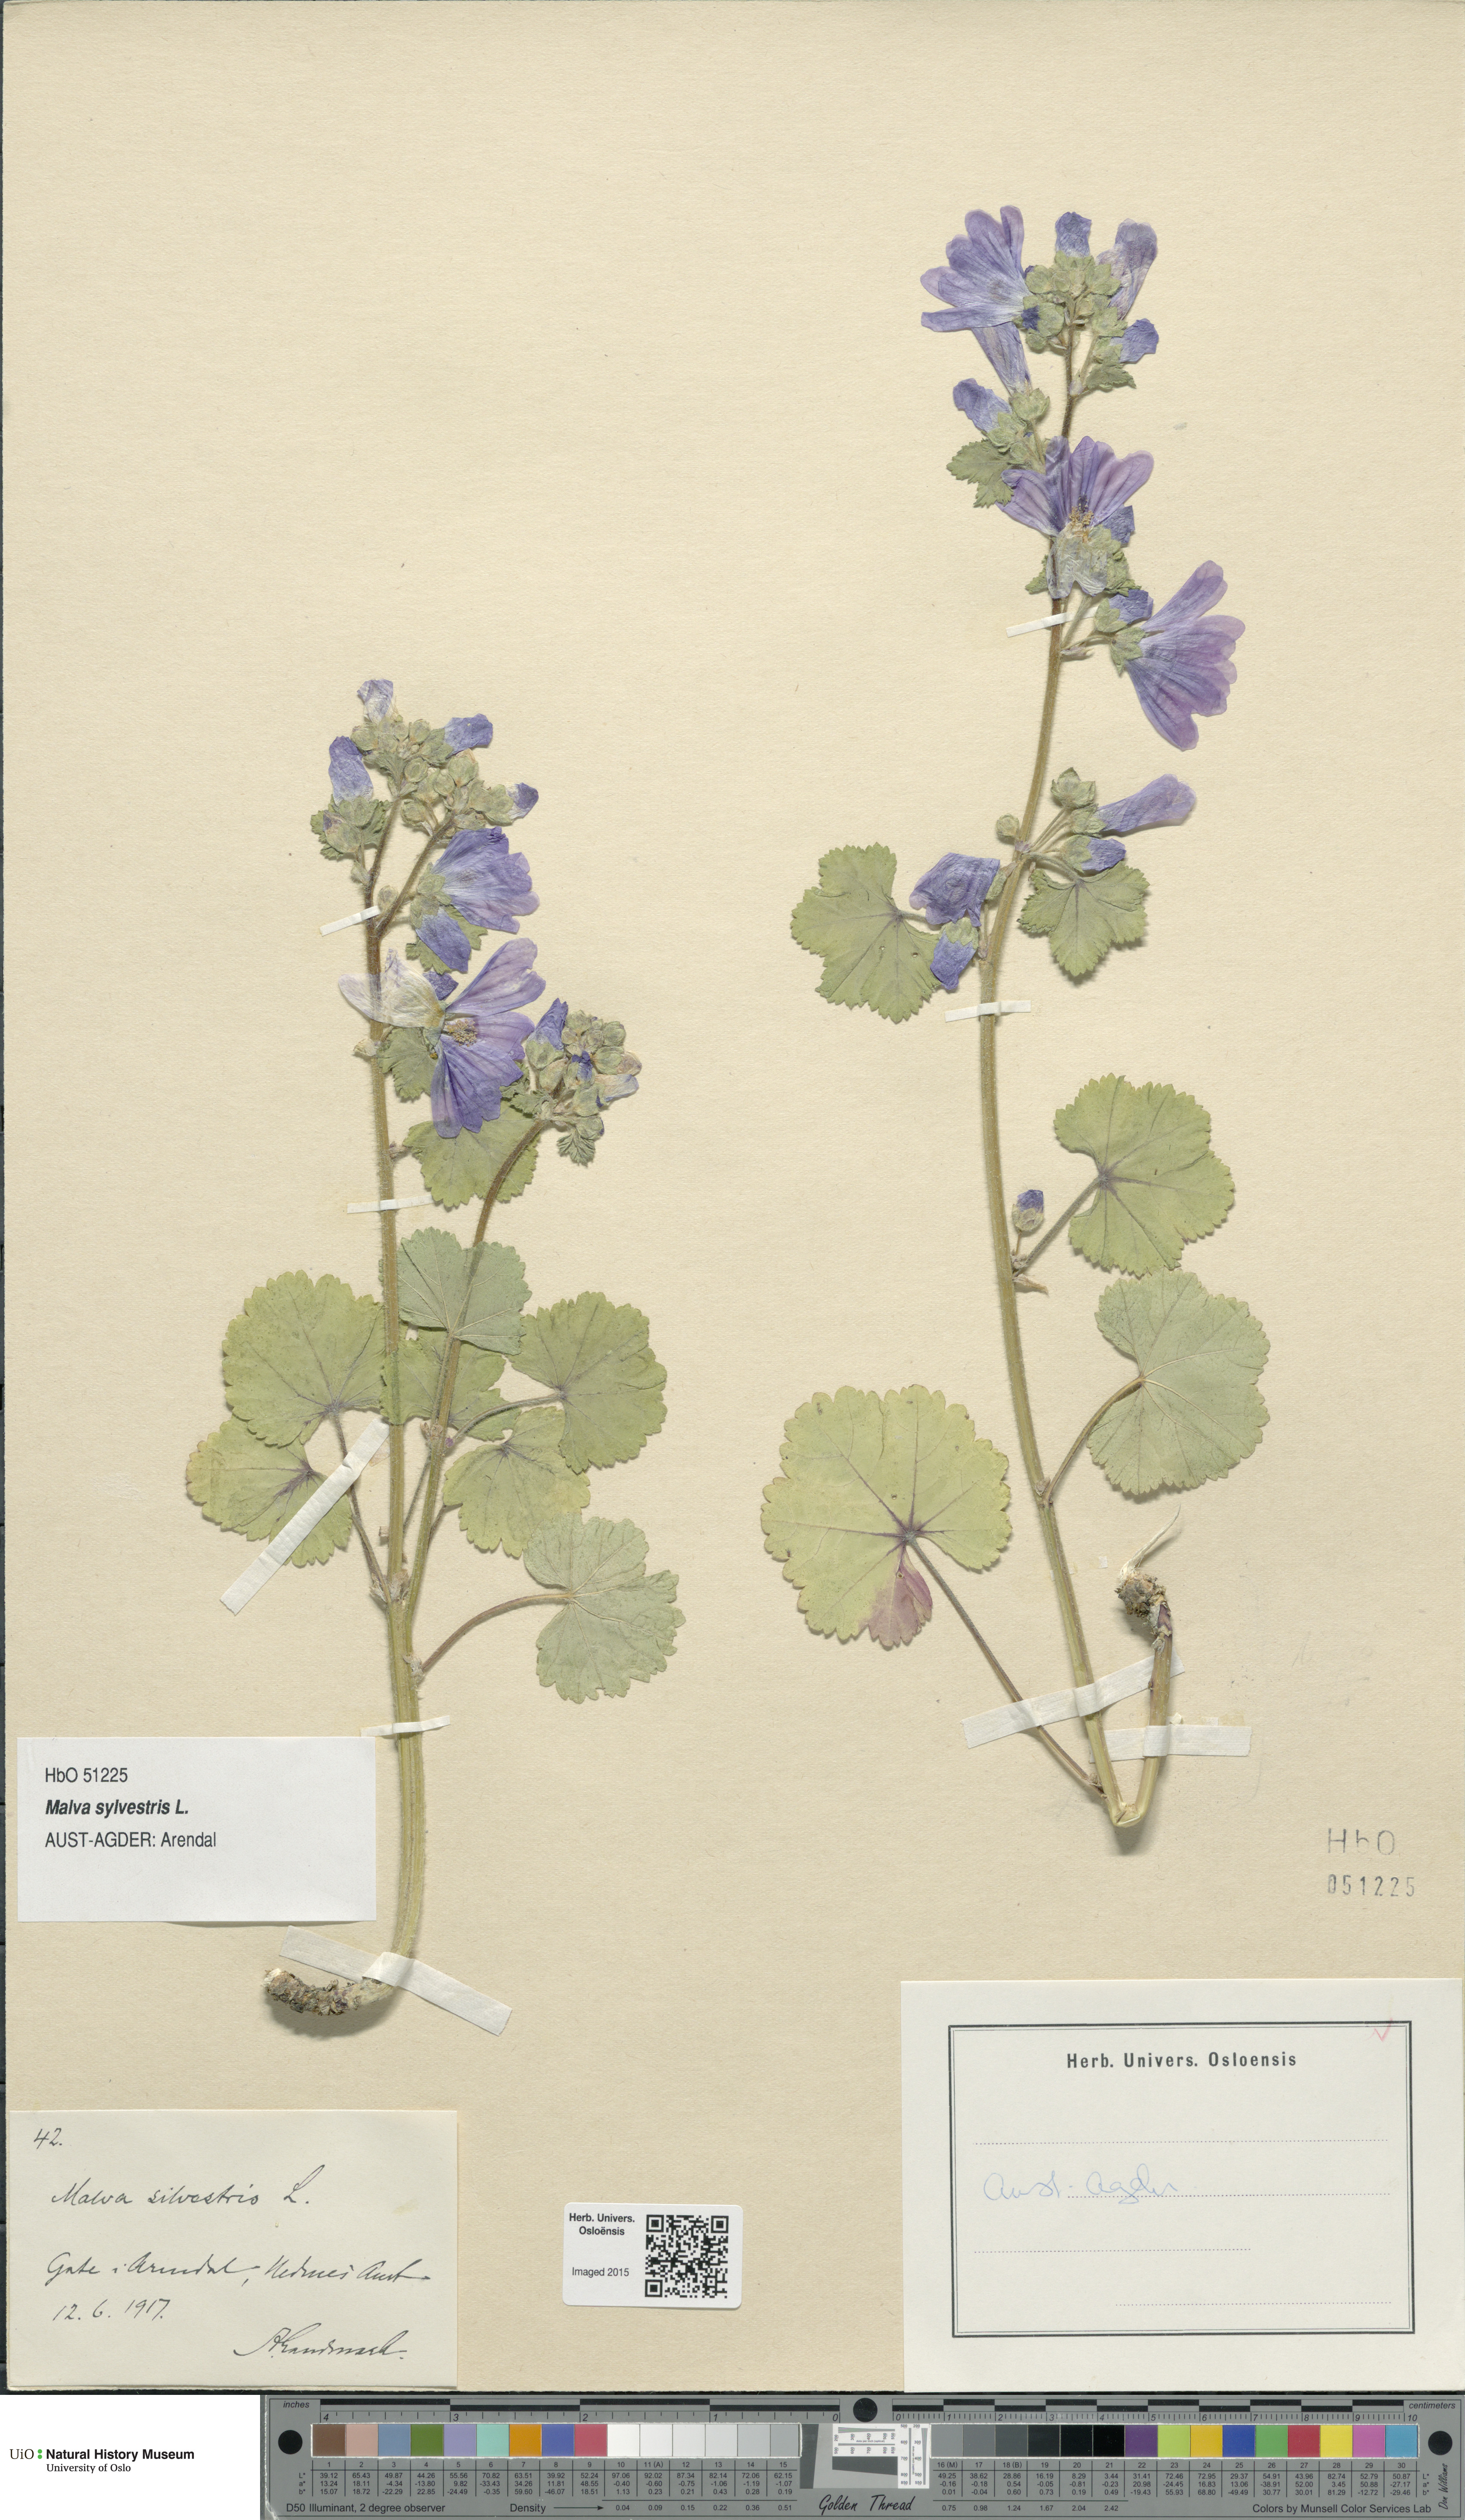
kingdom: Plantae
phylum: Tracheophyta
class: Magnoliopsida
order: Malvales
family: Malvaceae
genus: Malva
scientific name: Malva sylvestris
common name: Common mallow
